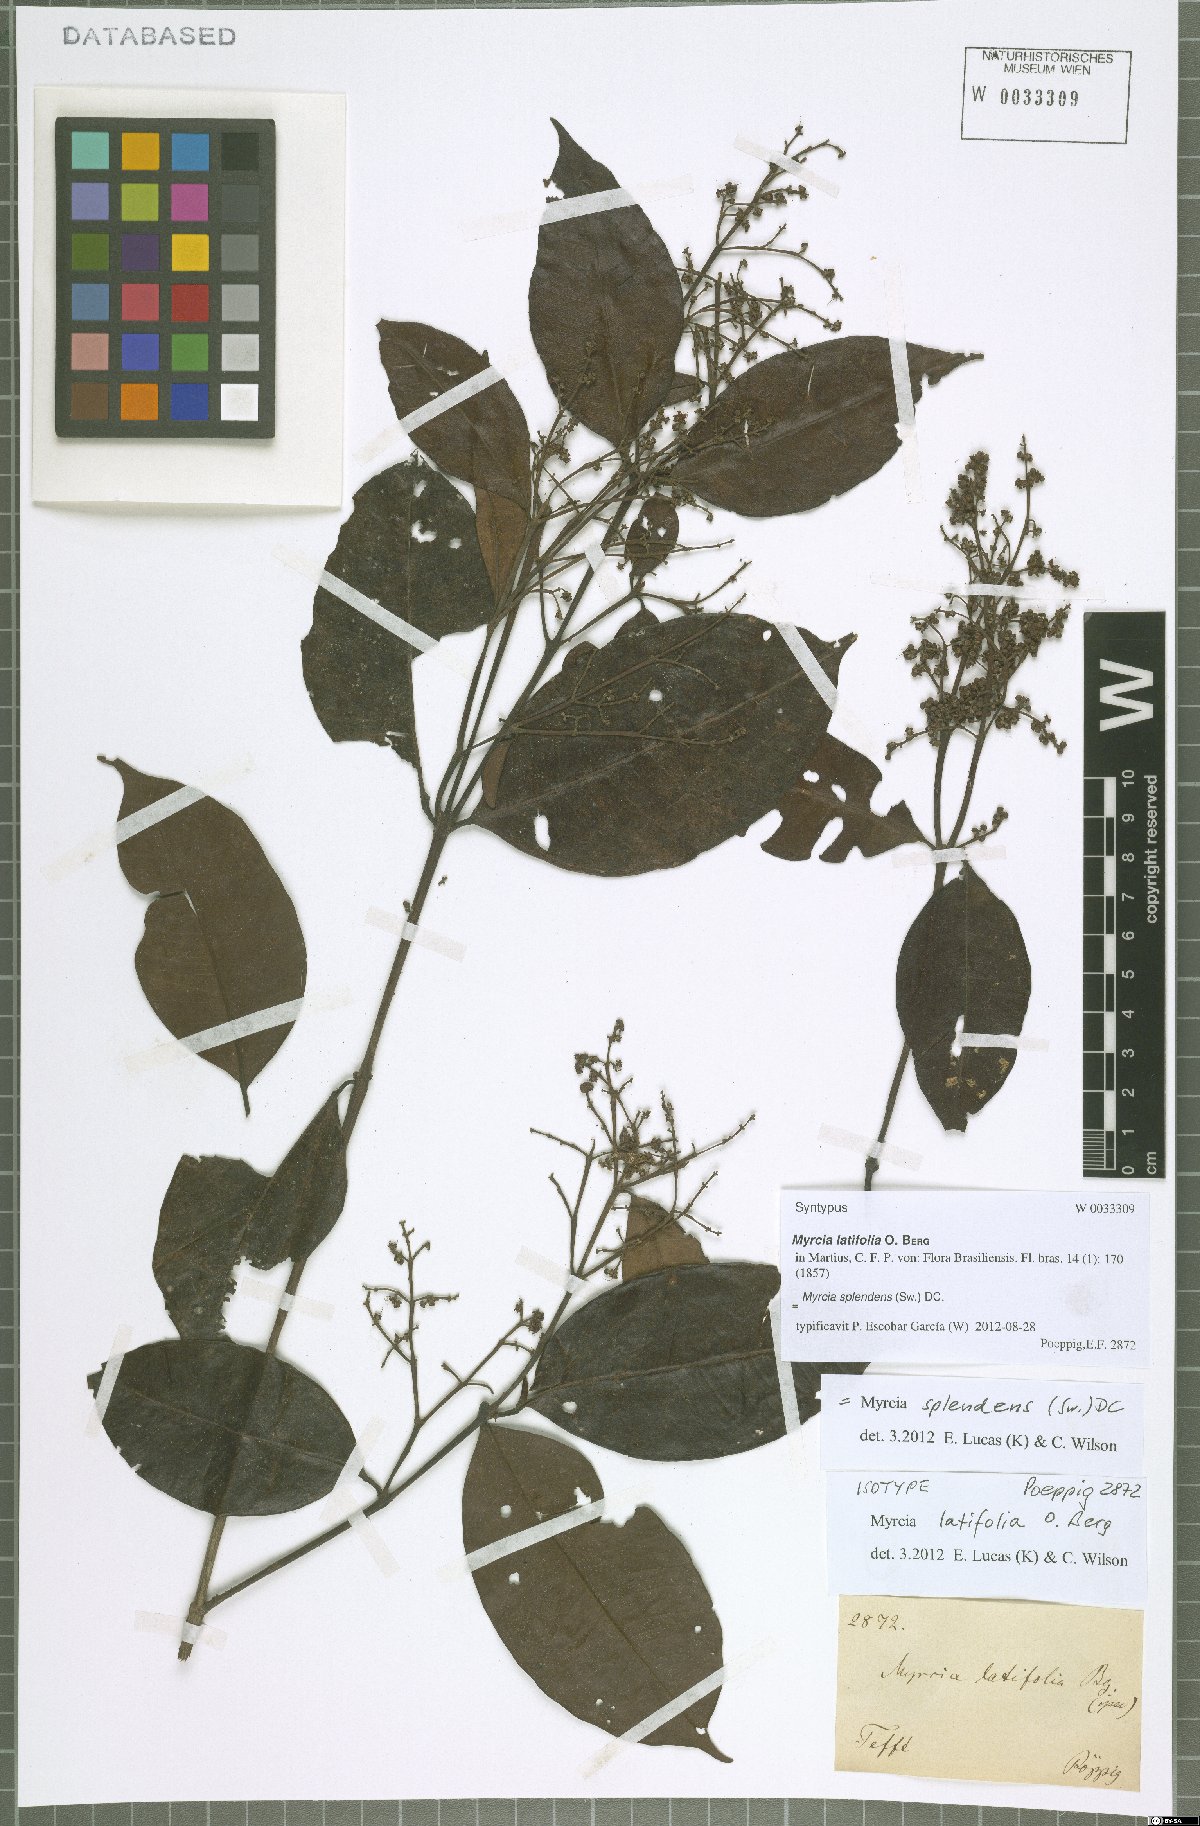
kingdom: Plantae
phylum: Tracheophyta
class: Magnoliopsida
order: Myrtales
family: Myrtaceae
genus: Myrcia
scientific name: Myrcia splendens
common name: Surinam cherry
